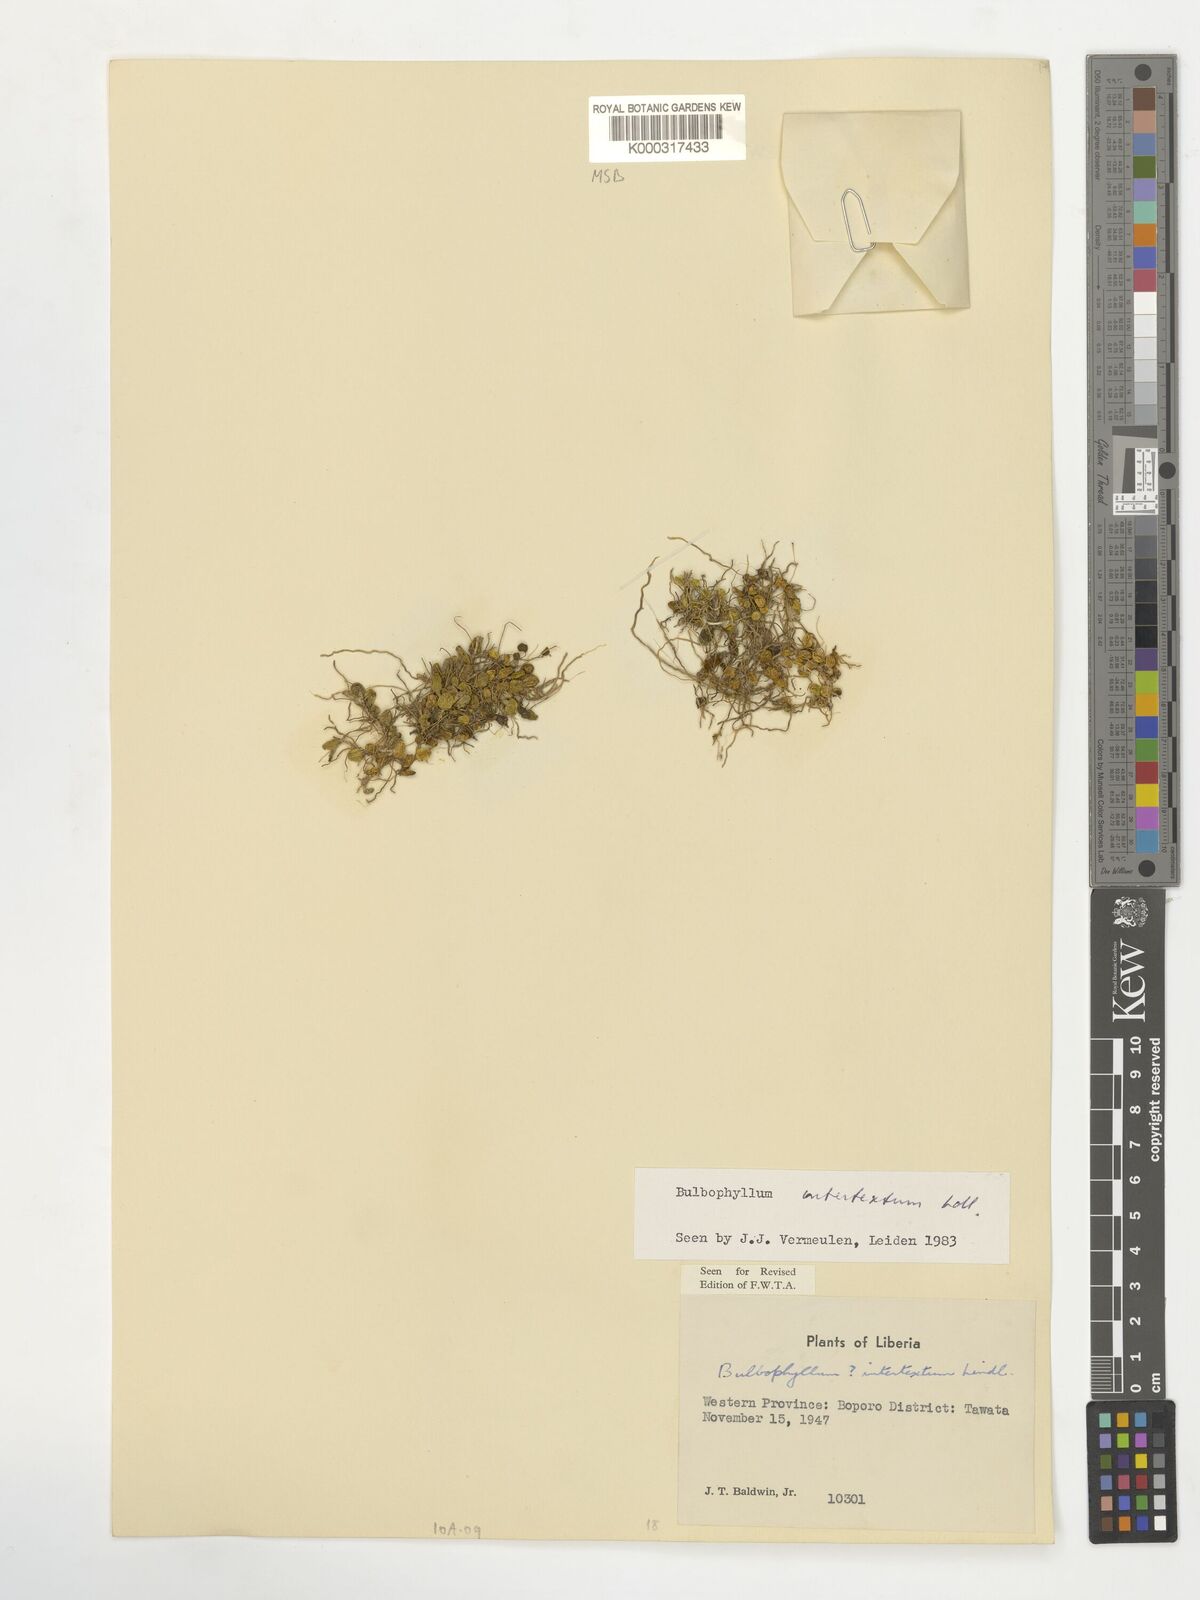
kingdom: Plantae
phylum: Tracheophyta
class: Liliopsida
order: Asparagales
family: Orchidaceae
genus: Bulbophyllum
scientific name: Bulbophyllum intertextum
